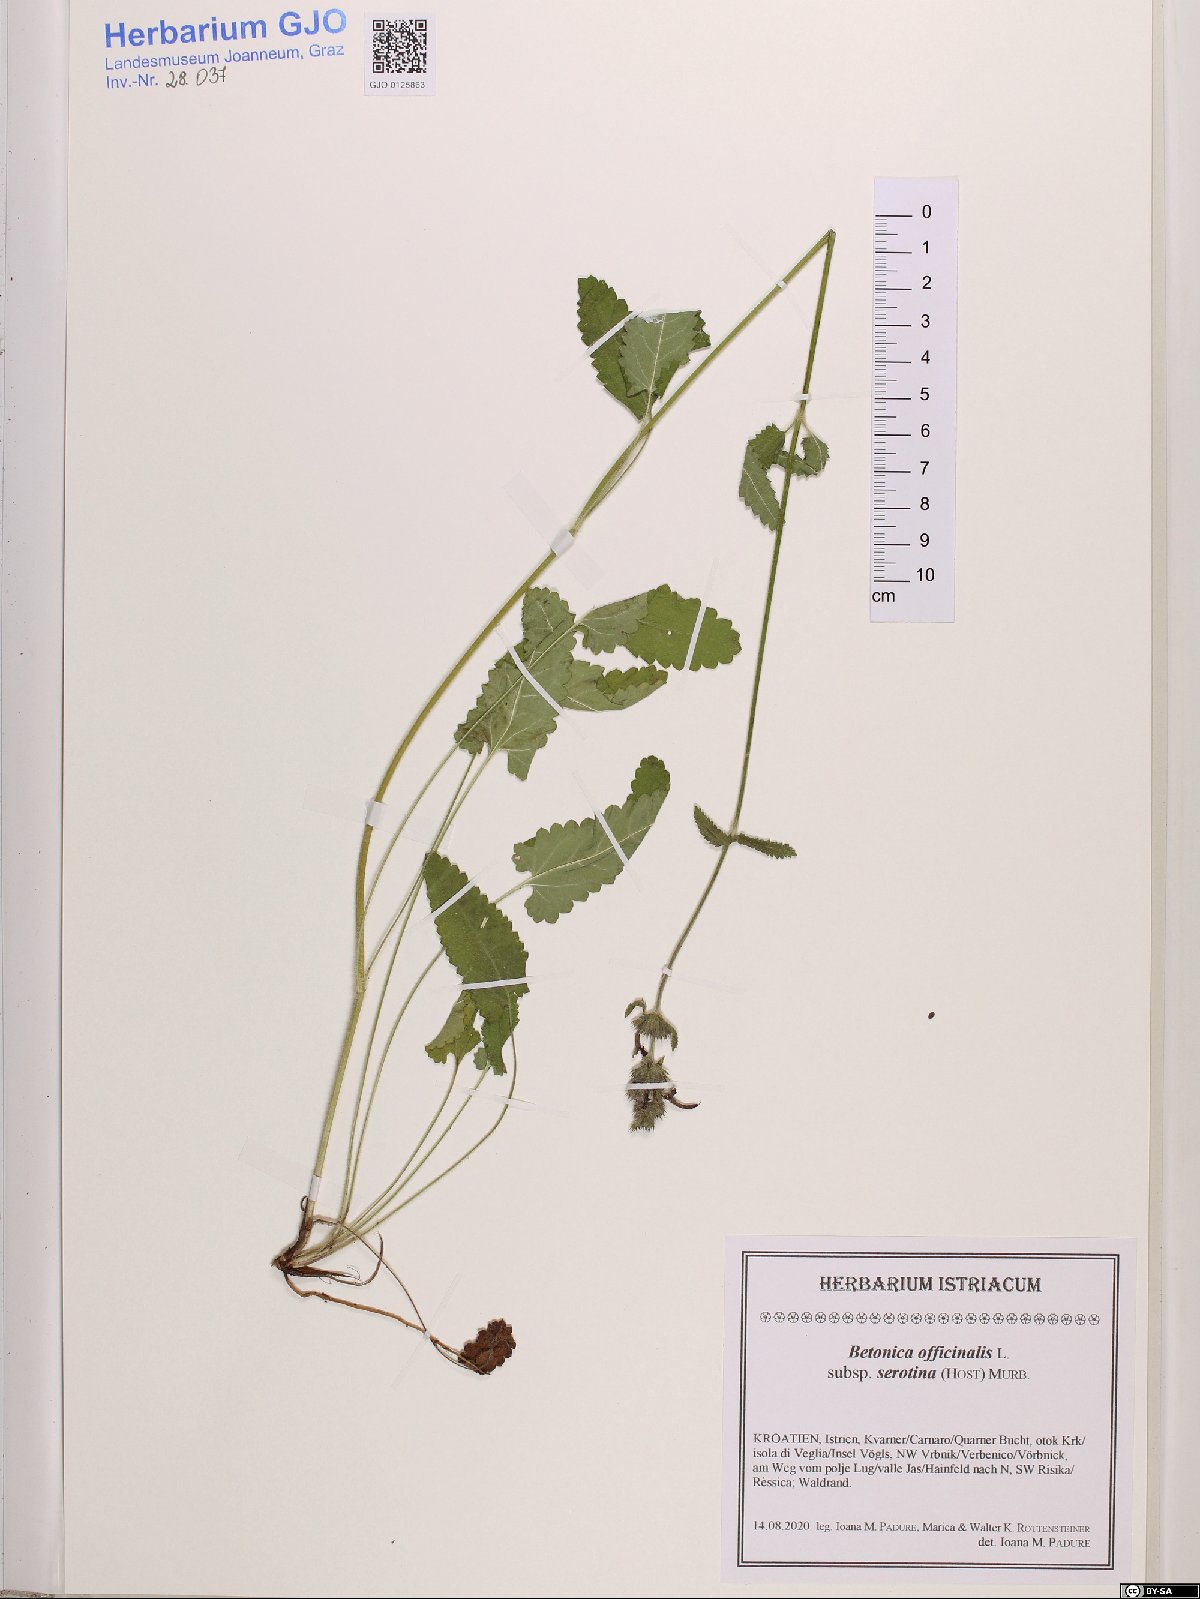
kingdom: Plantae
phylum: Tracheophyta
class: Magnoliopsida
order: Lamiales
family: Lamiaceae
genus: Betonica
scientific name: Betonica officinalis
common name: Bishop's-wort
